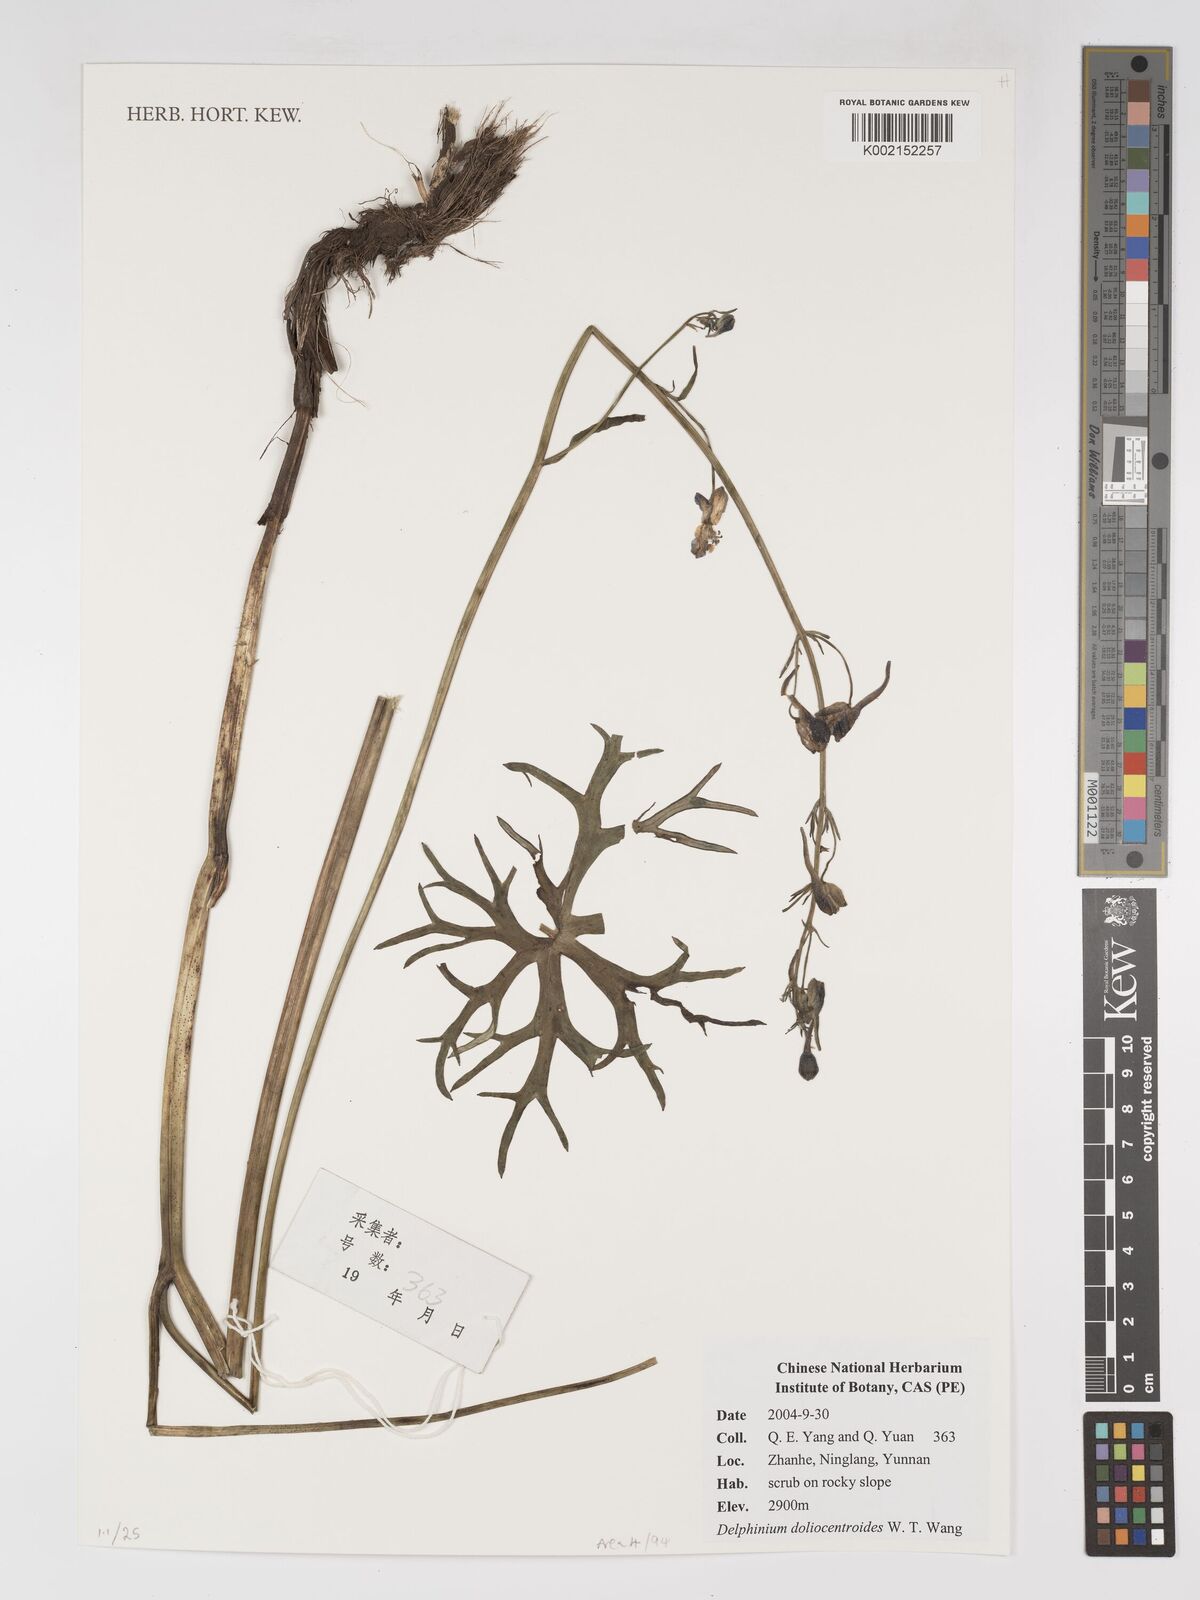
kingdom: Plantae
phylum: Tracheophyta
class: Magnoliopsida
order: Ranunculales
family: Ranunculaceae
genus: Delphinium
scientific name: Delphinium dolichocentroides
